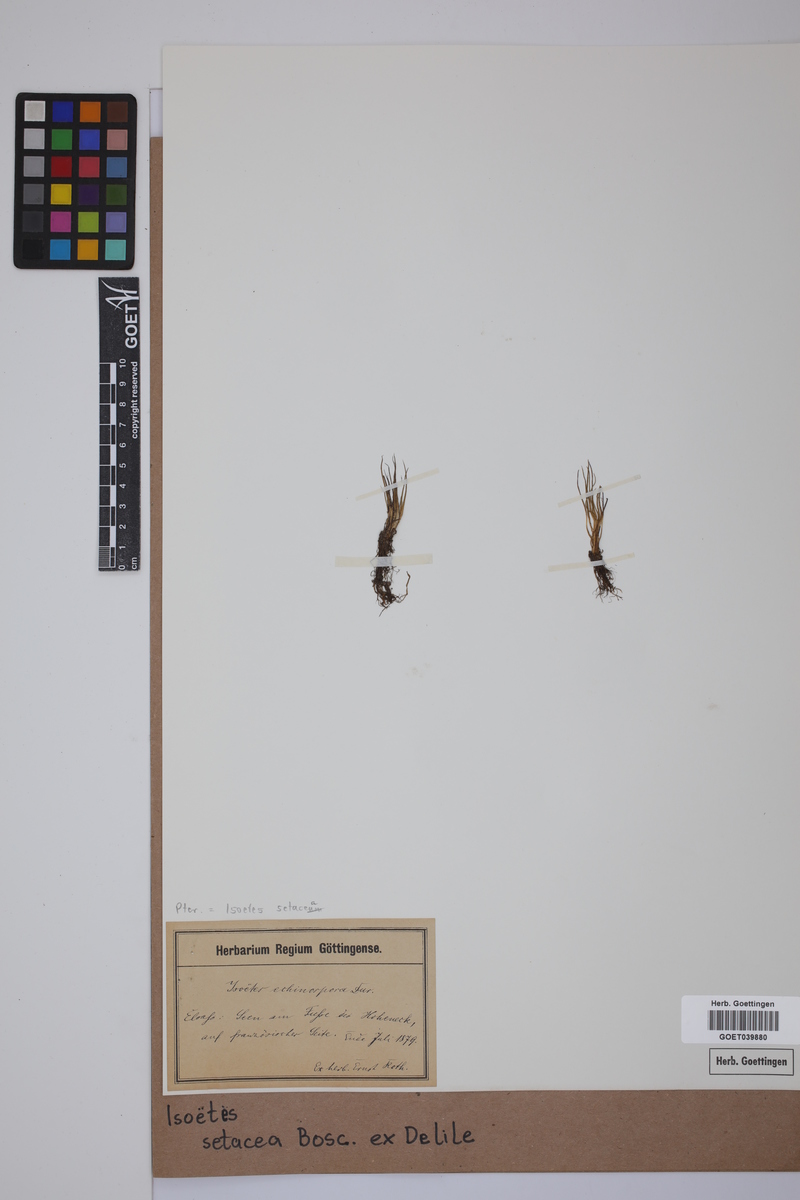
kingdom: Plantae
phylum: Tracheophyta
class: Lycopodiopsida
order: Isoetales
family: Isoetaceae
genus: Isoetes
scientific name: Isoetes longissima
